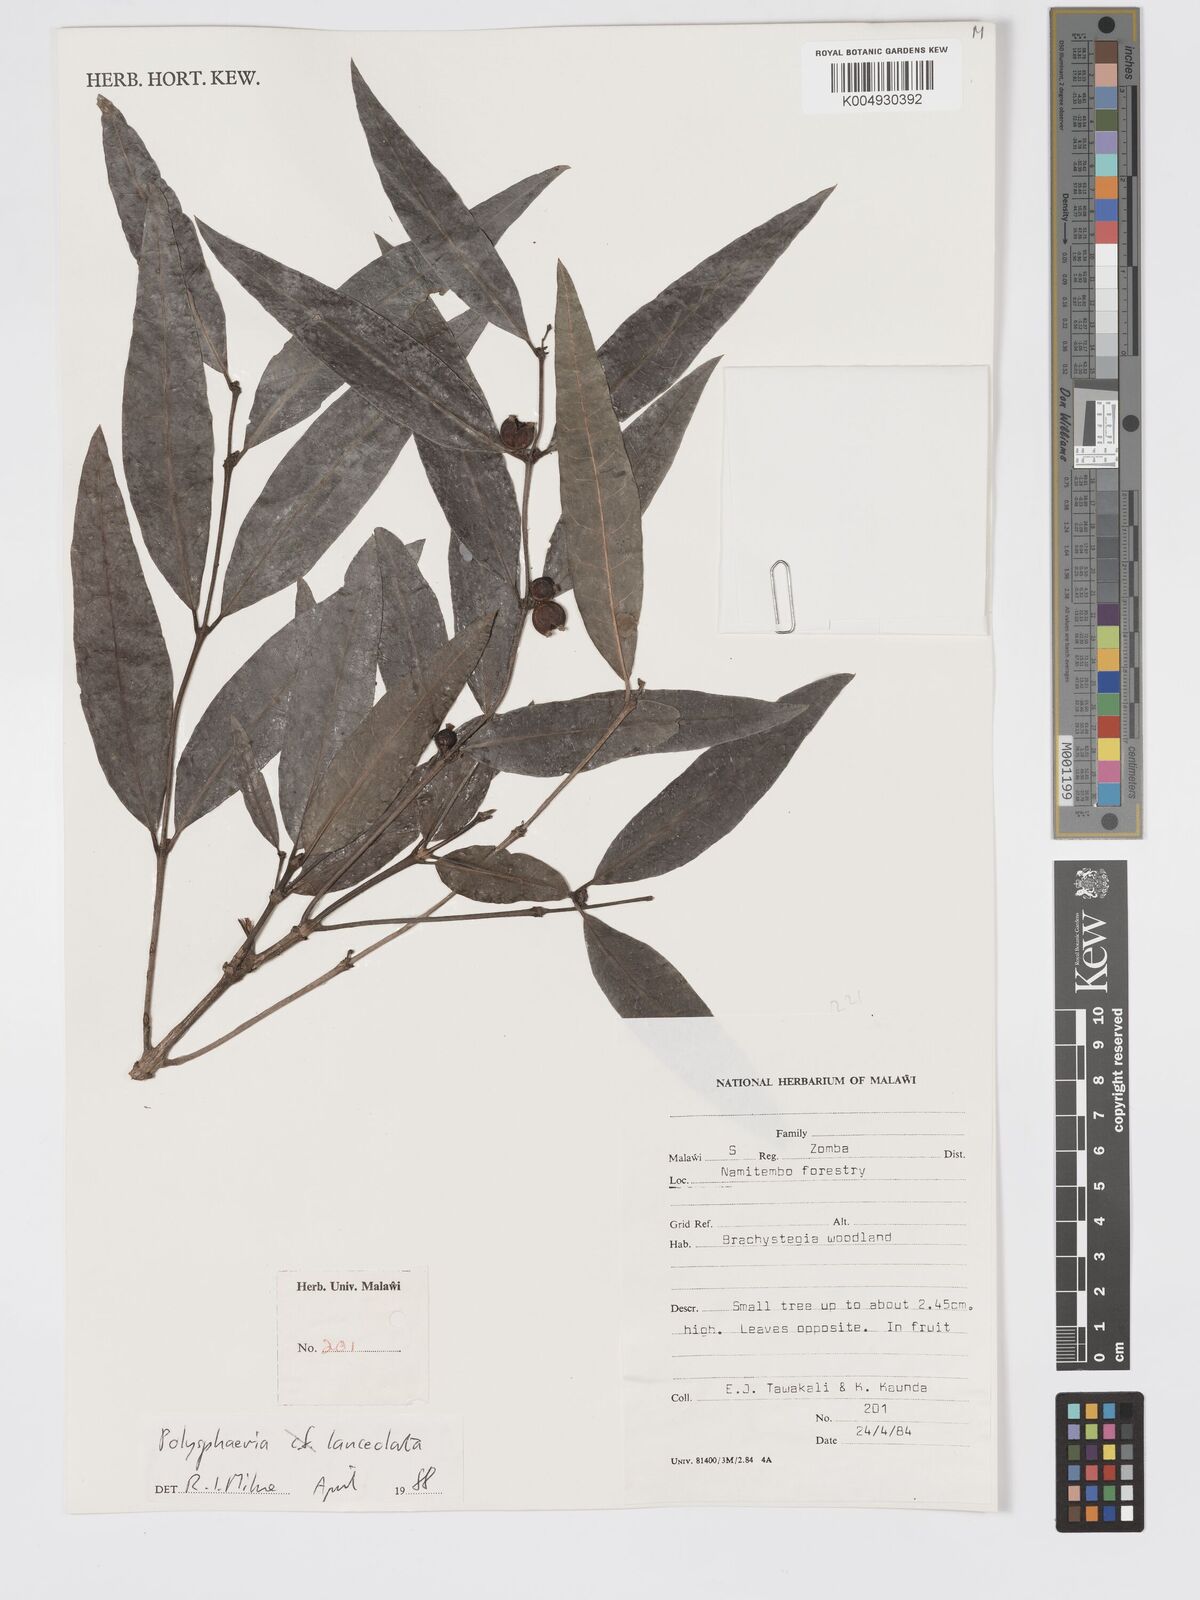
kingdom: Plantae
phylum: Tracheophyta
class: Magnoliopsida
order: Gentianales
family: Rubiaceae
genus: Polysphaeria
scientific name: Polysphaeria lanceolata
